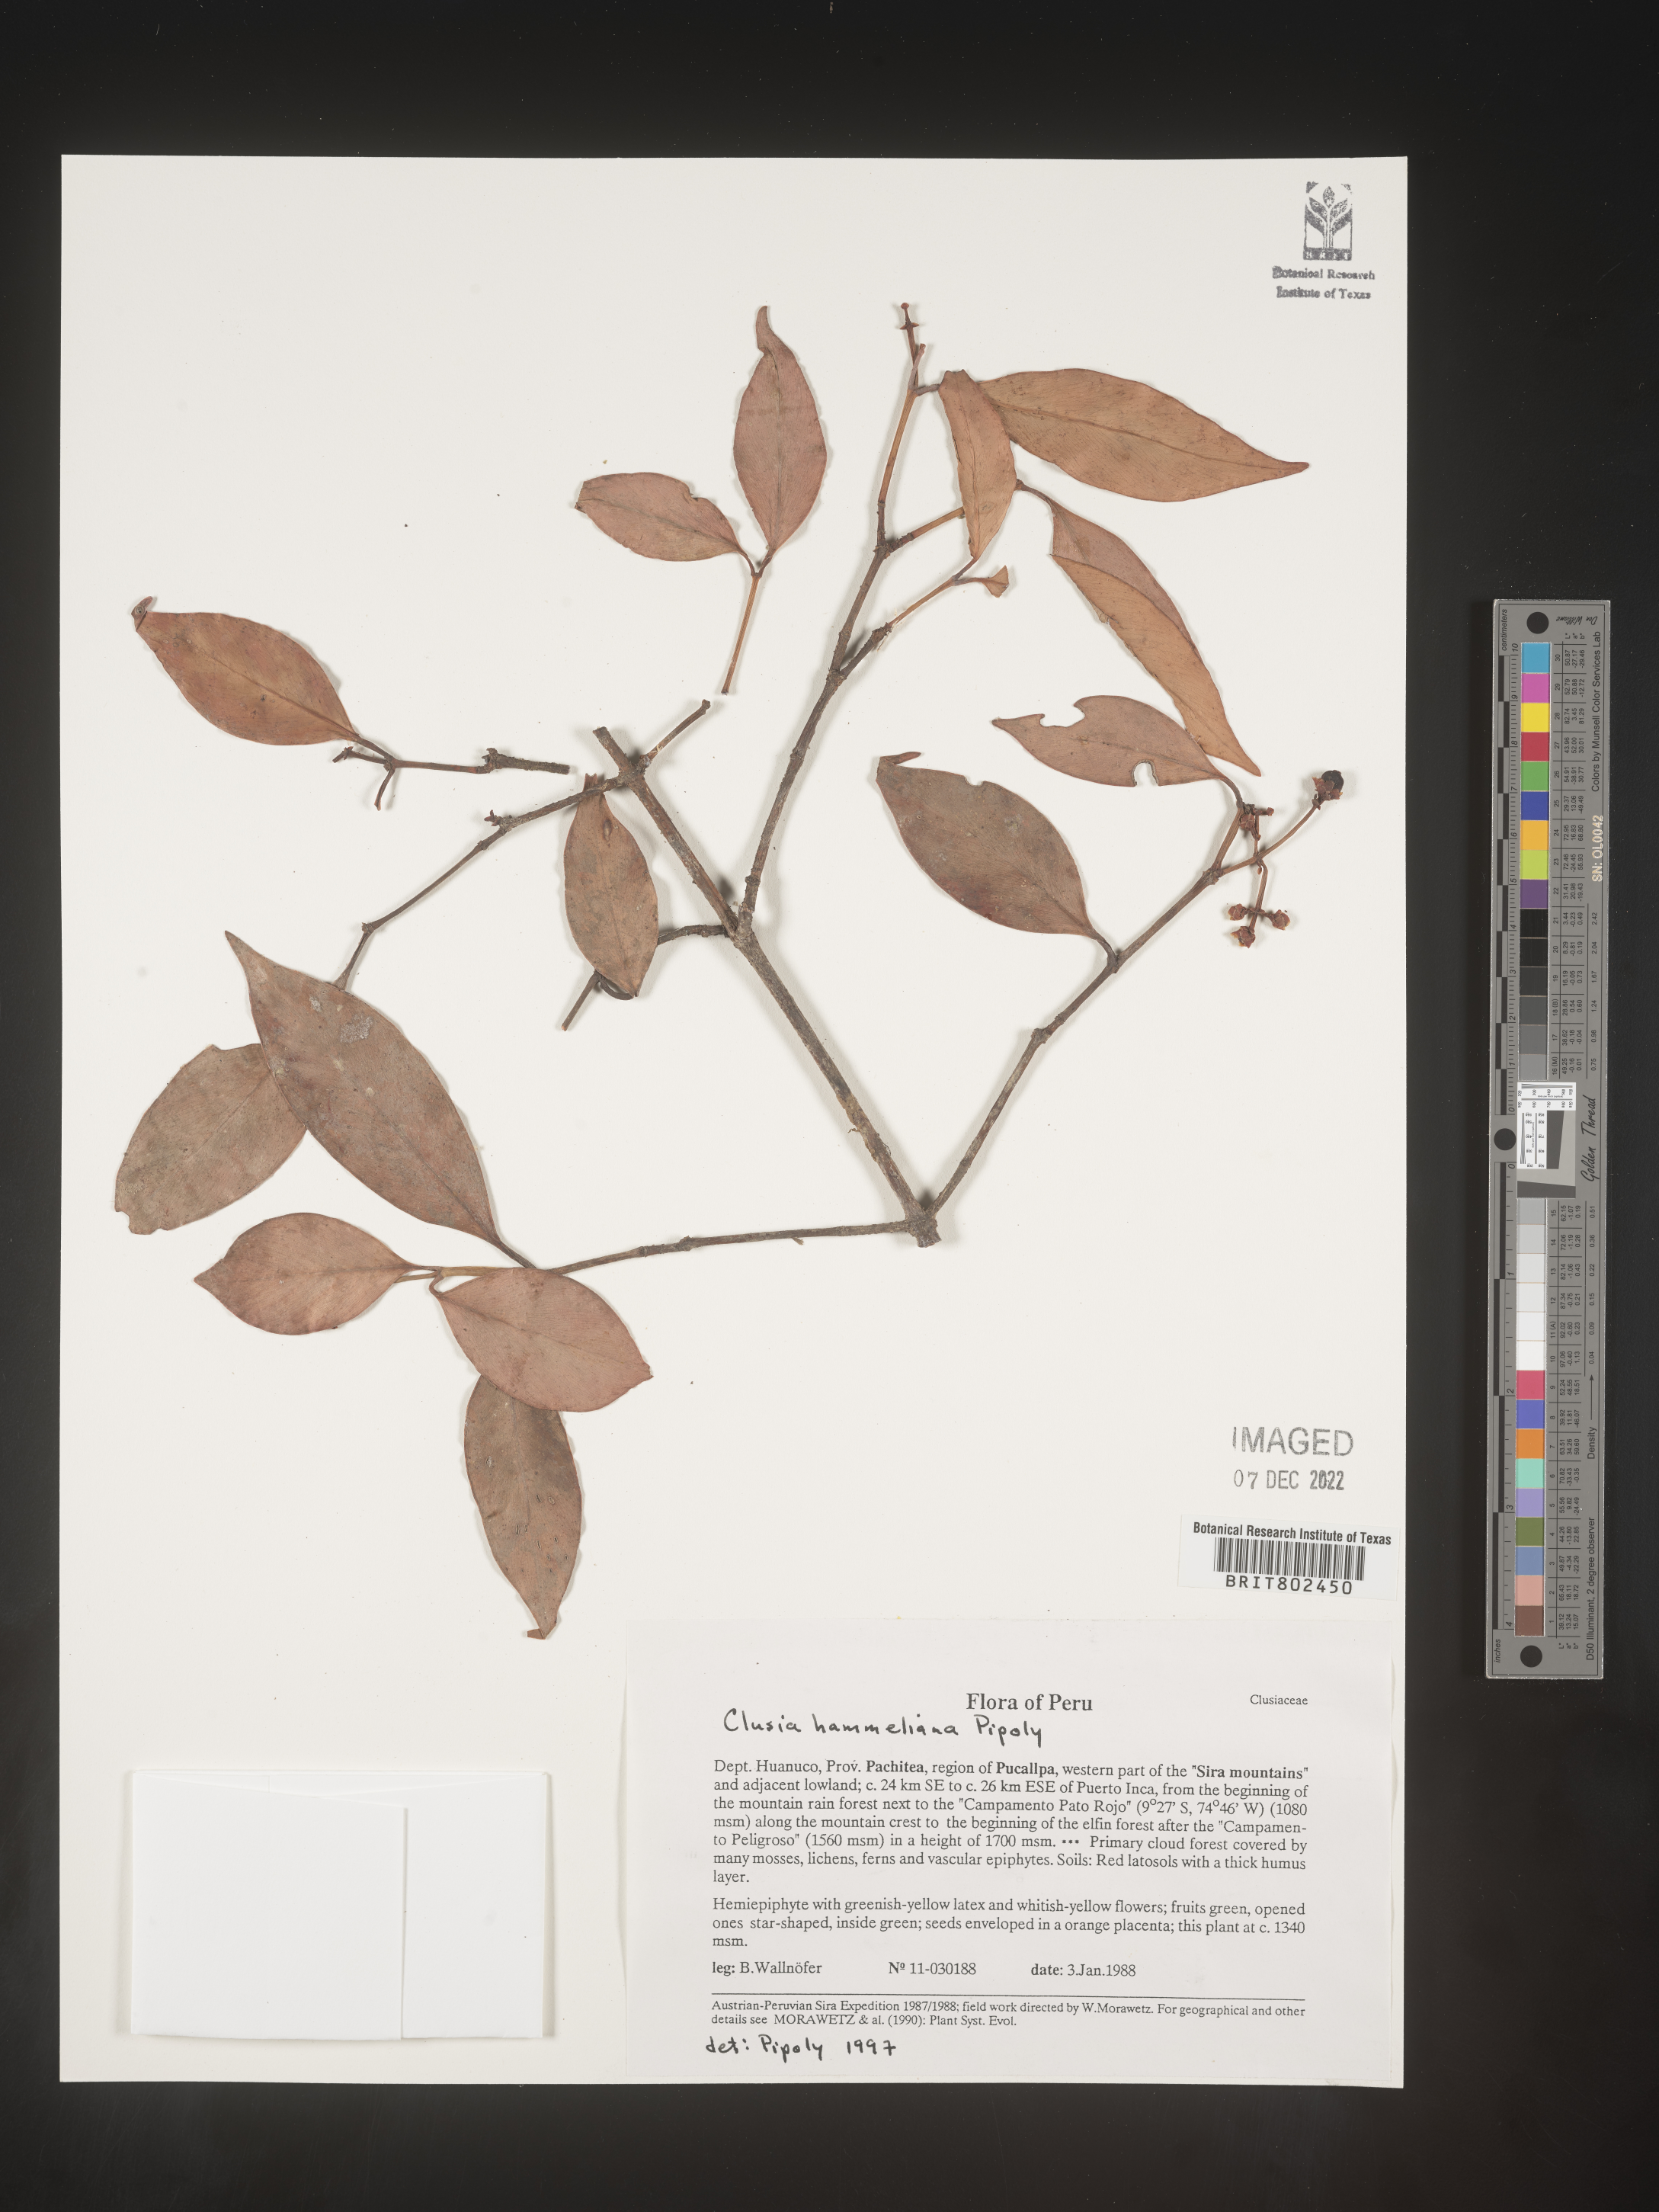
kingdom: Plantae
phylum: Tracheophyta
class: Magnoliopsida
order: Malpighiales
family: Clusiaceae
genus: Clusia
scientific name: Clusia hammeliana
